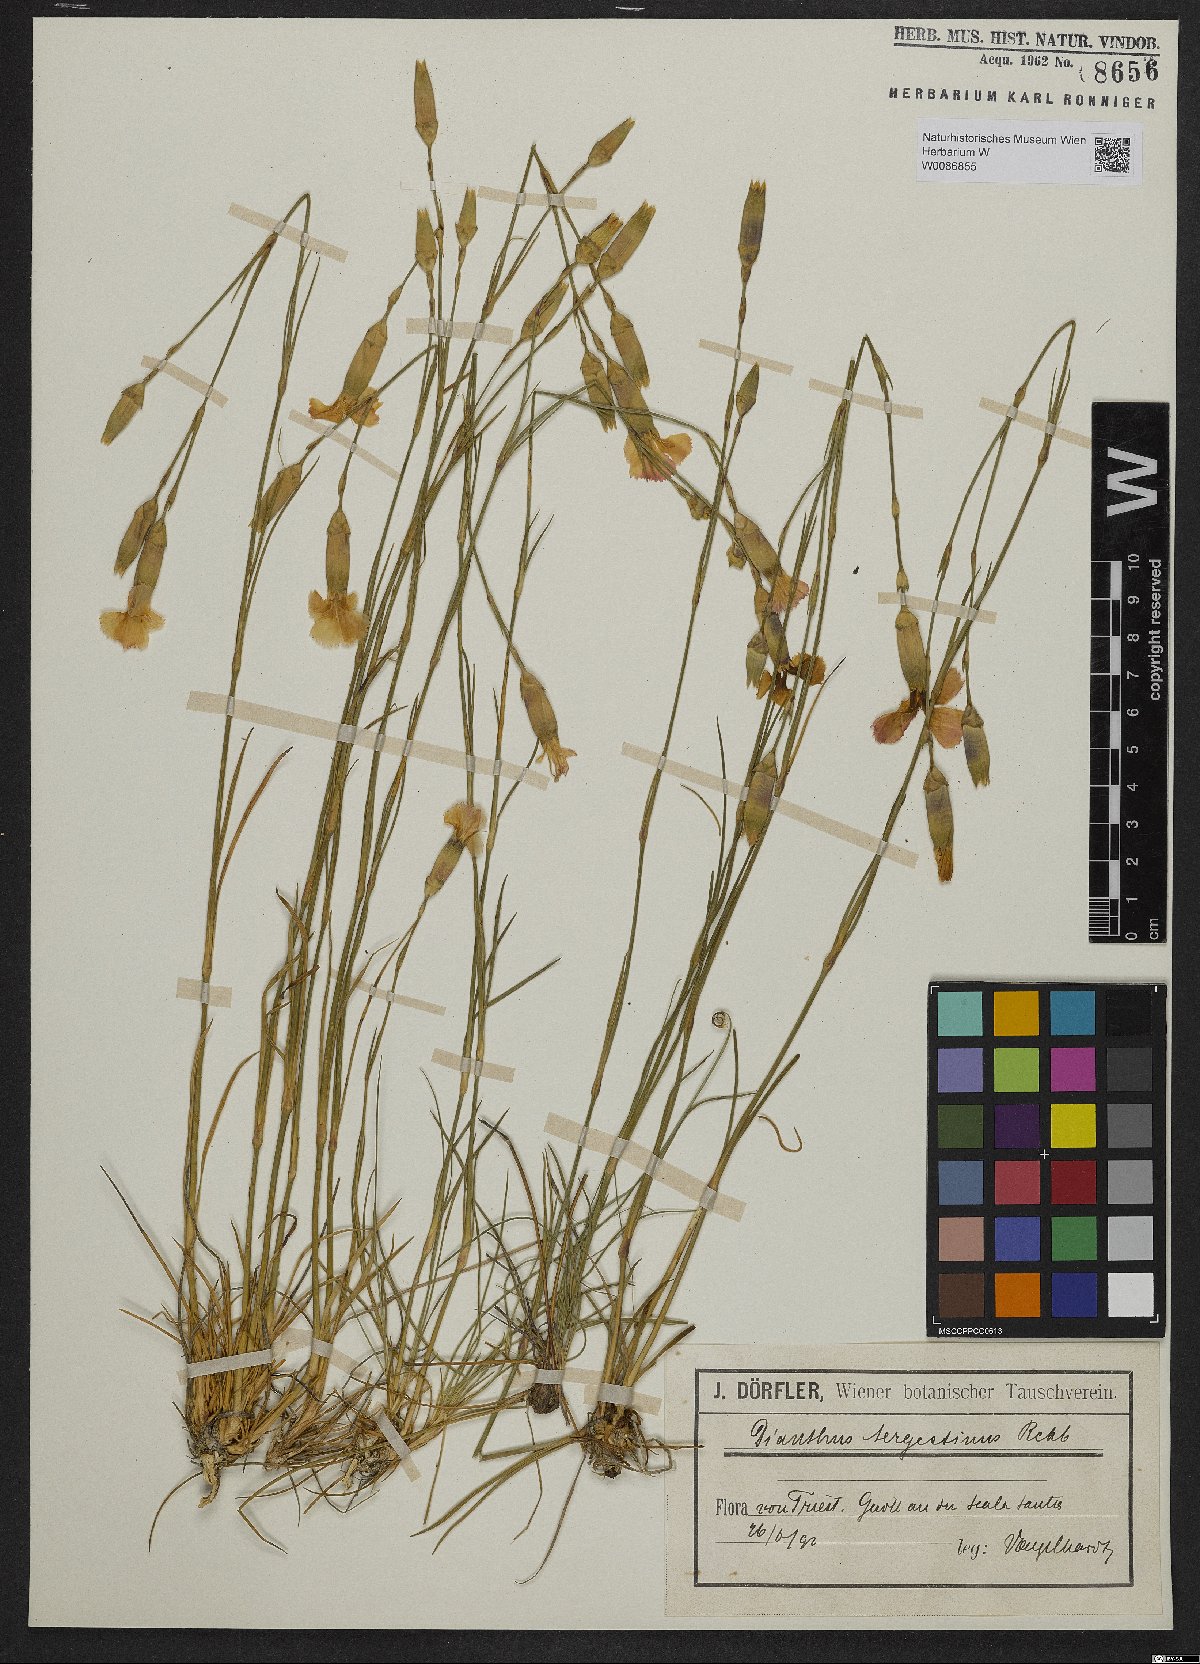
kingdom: Plantae
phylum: Tracheophyta
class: Magnoliopsida
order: Caryophyllales
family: Caryophyllaceae
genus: Dianthus
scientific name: Dianthus sylvestris
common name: Wood pink
